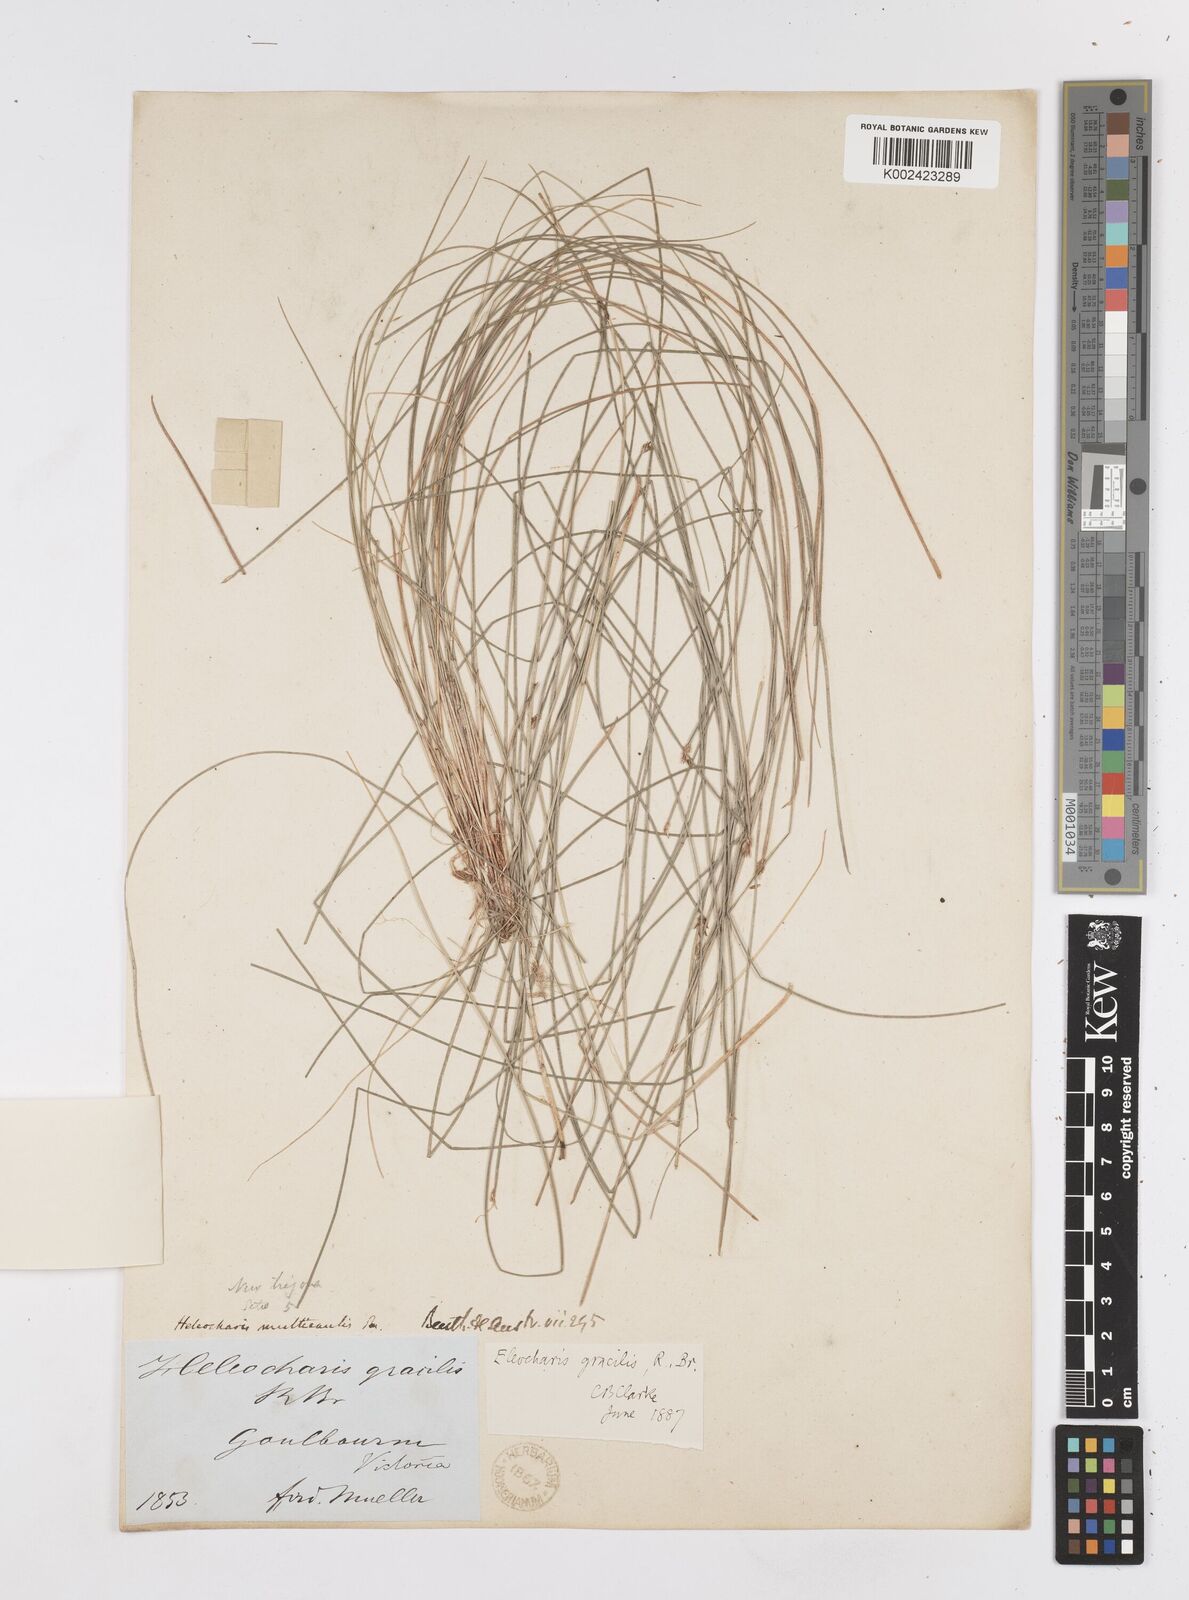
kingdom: Plantae
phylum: Tracheophyta
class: Liliopsida
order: Poales
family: Cyperaceae
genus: Eleocharis
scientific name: Eleocharis multicaulis
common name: Many-stalked spike-rush
